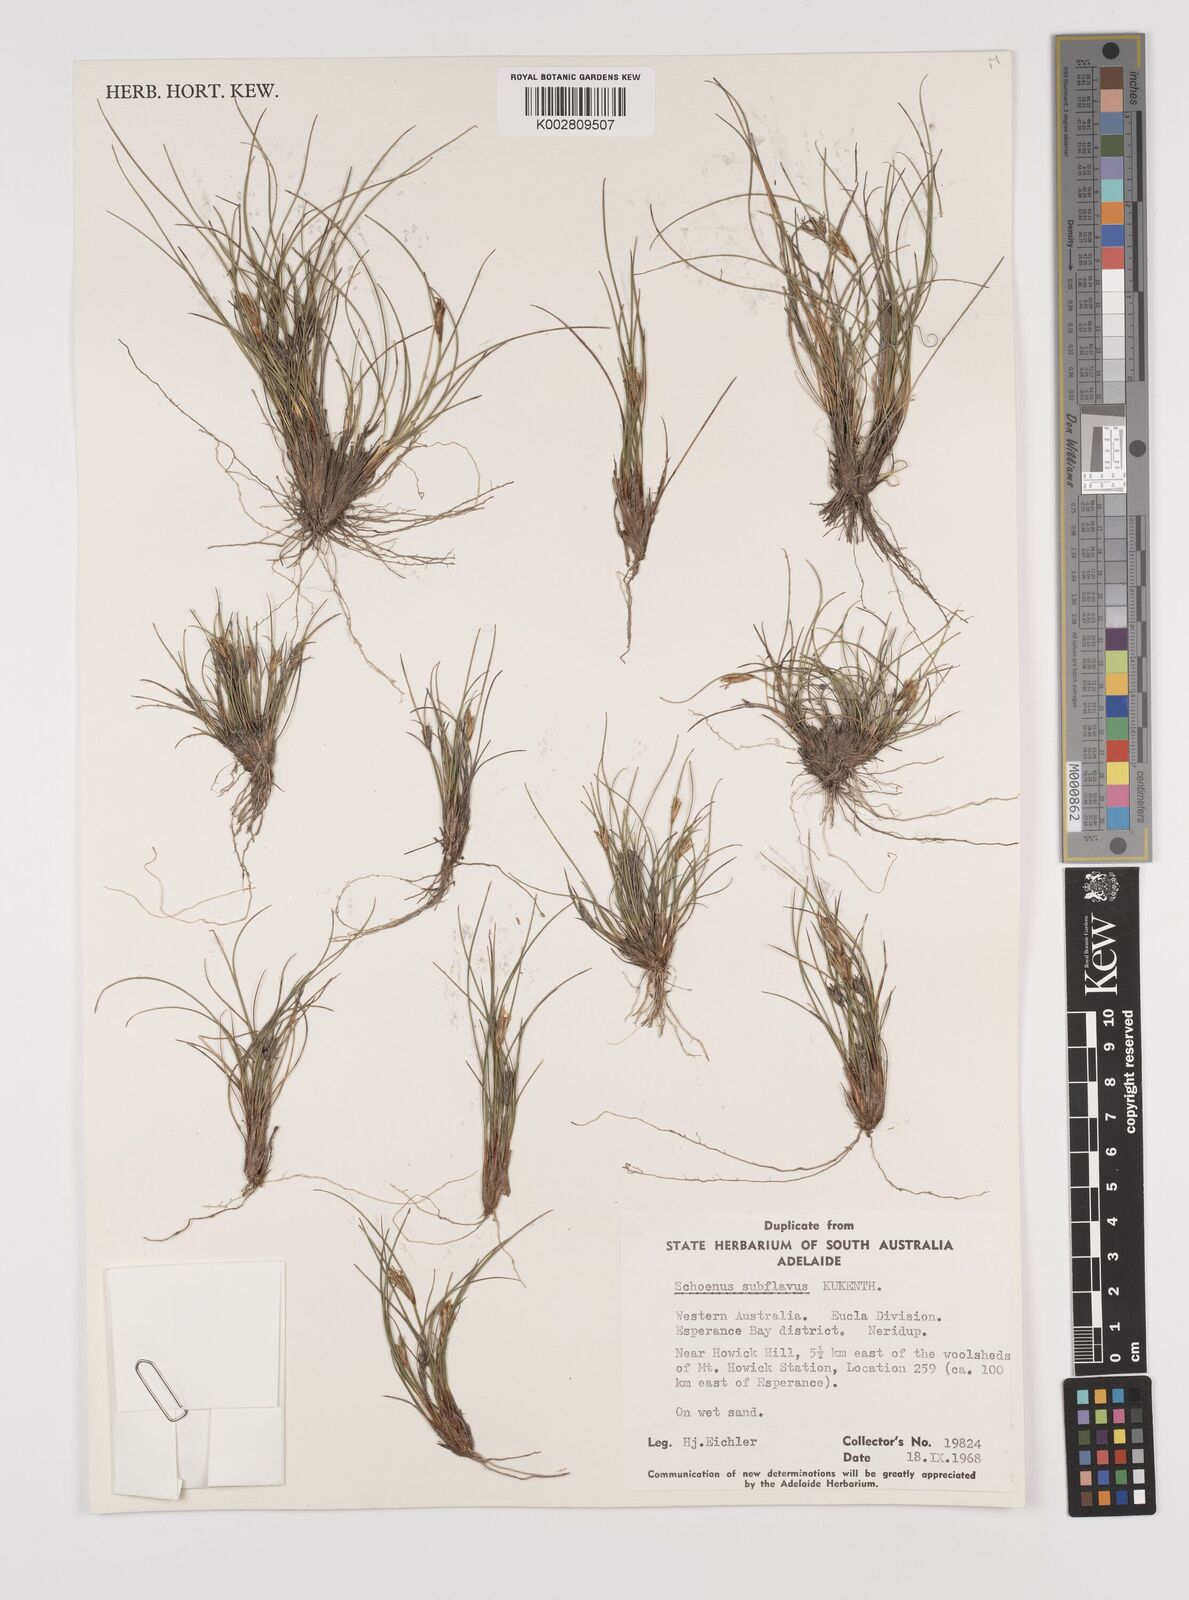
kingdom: Plantae
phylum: Tracheophyta
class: Liliopsida
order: Poales
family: Cyperaceae
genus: Schoenus
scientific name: Schoenus subflavus
